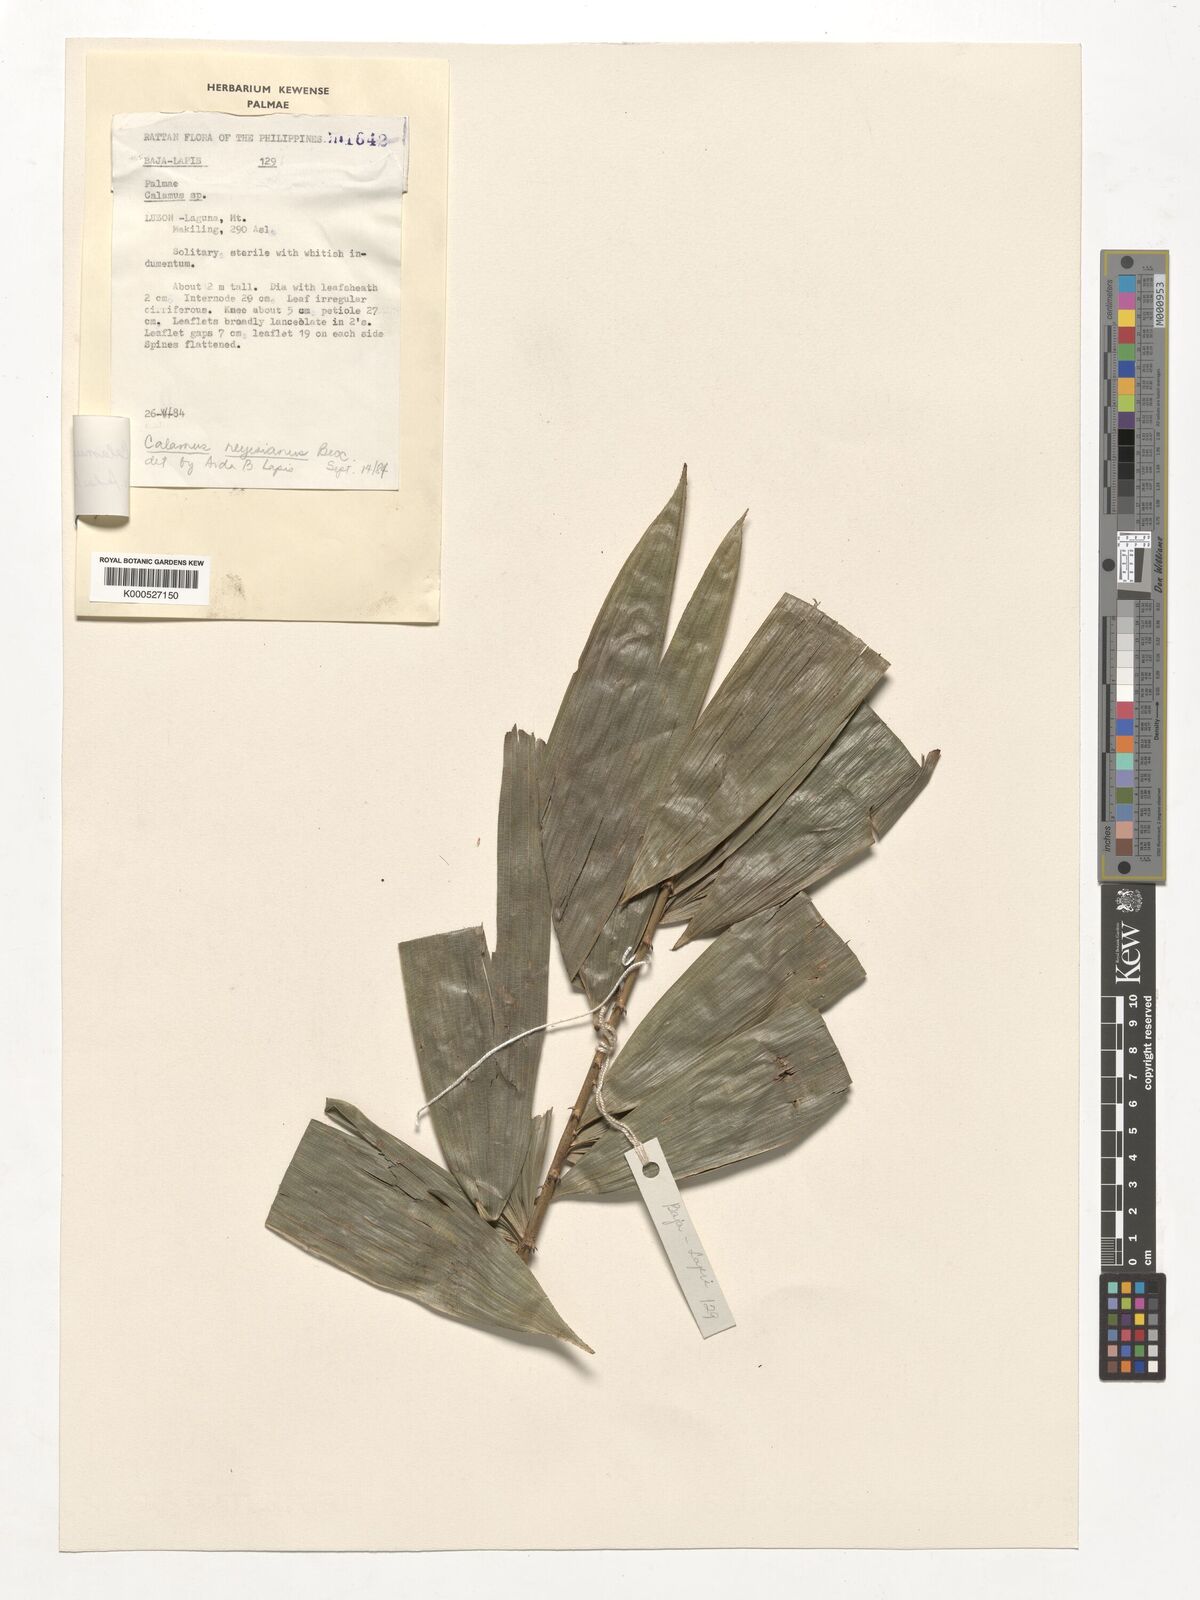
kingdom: Plantae
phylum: Tracheophyta
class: Liliopsida
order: Arecales
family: Arecaceae
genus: Calamus
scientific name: Calamus moseleyanus
